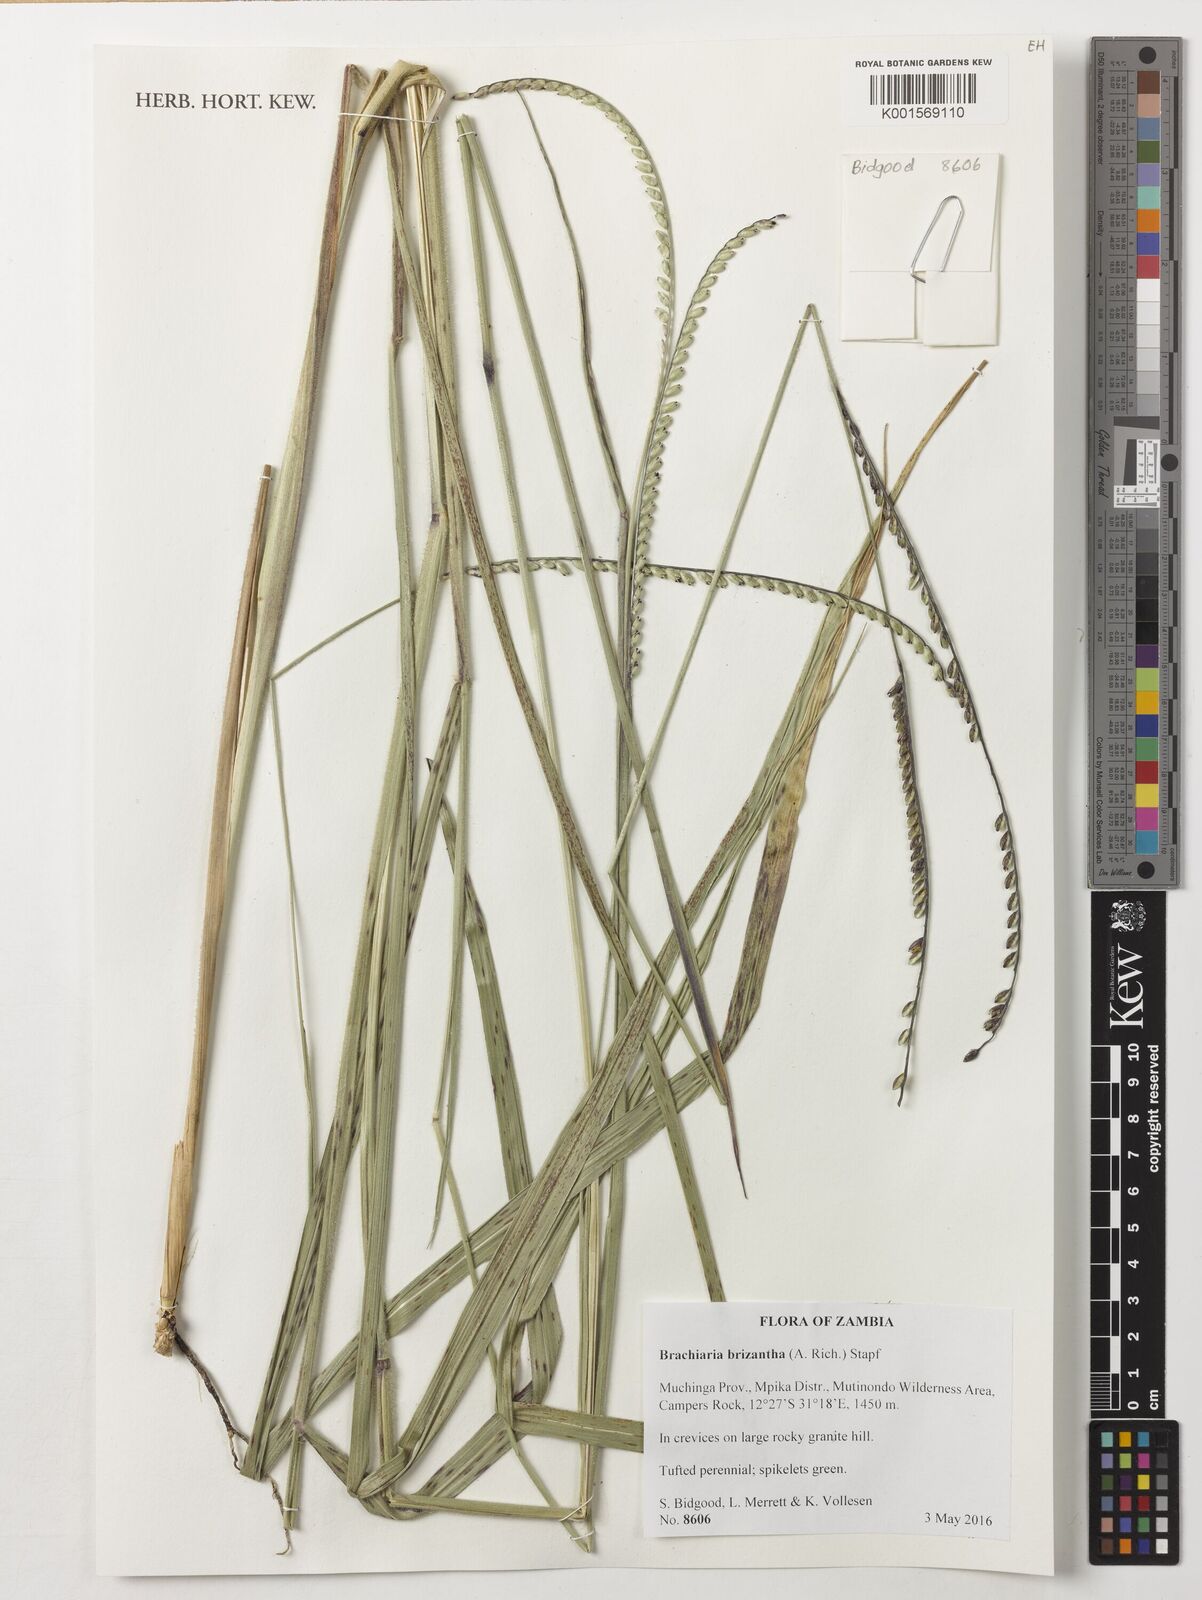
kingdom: Plantae
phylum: Tracheophyta
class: Liliopsida
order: Poales
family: Poaceae
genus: Urochloa
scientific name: Urochloa brizantha
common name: Palisade signalgrass
